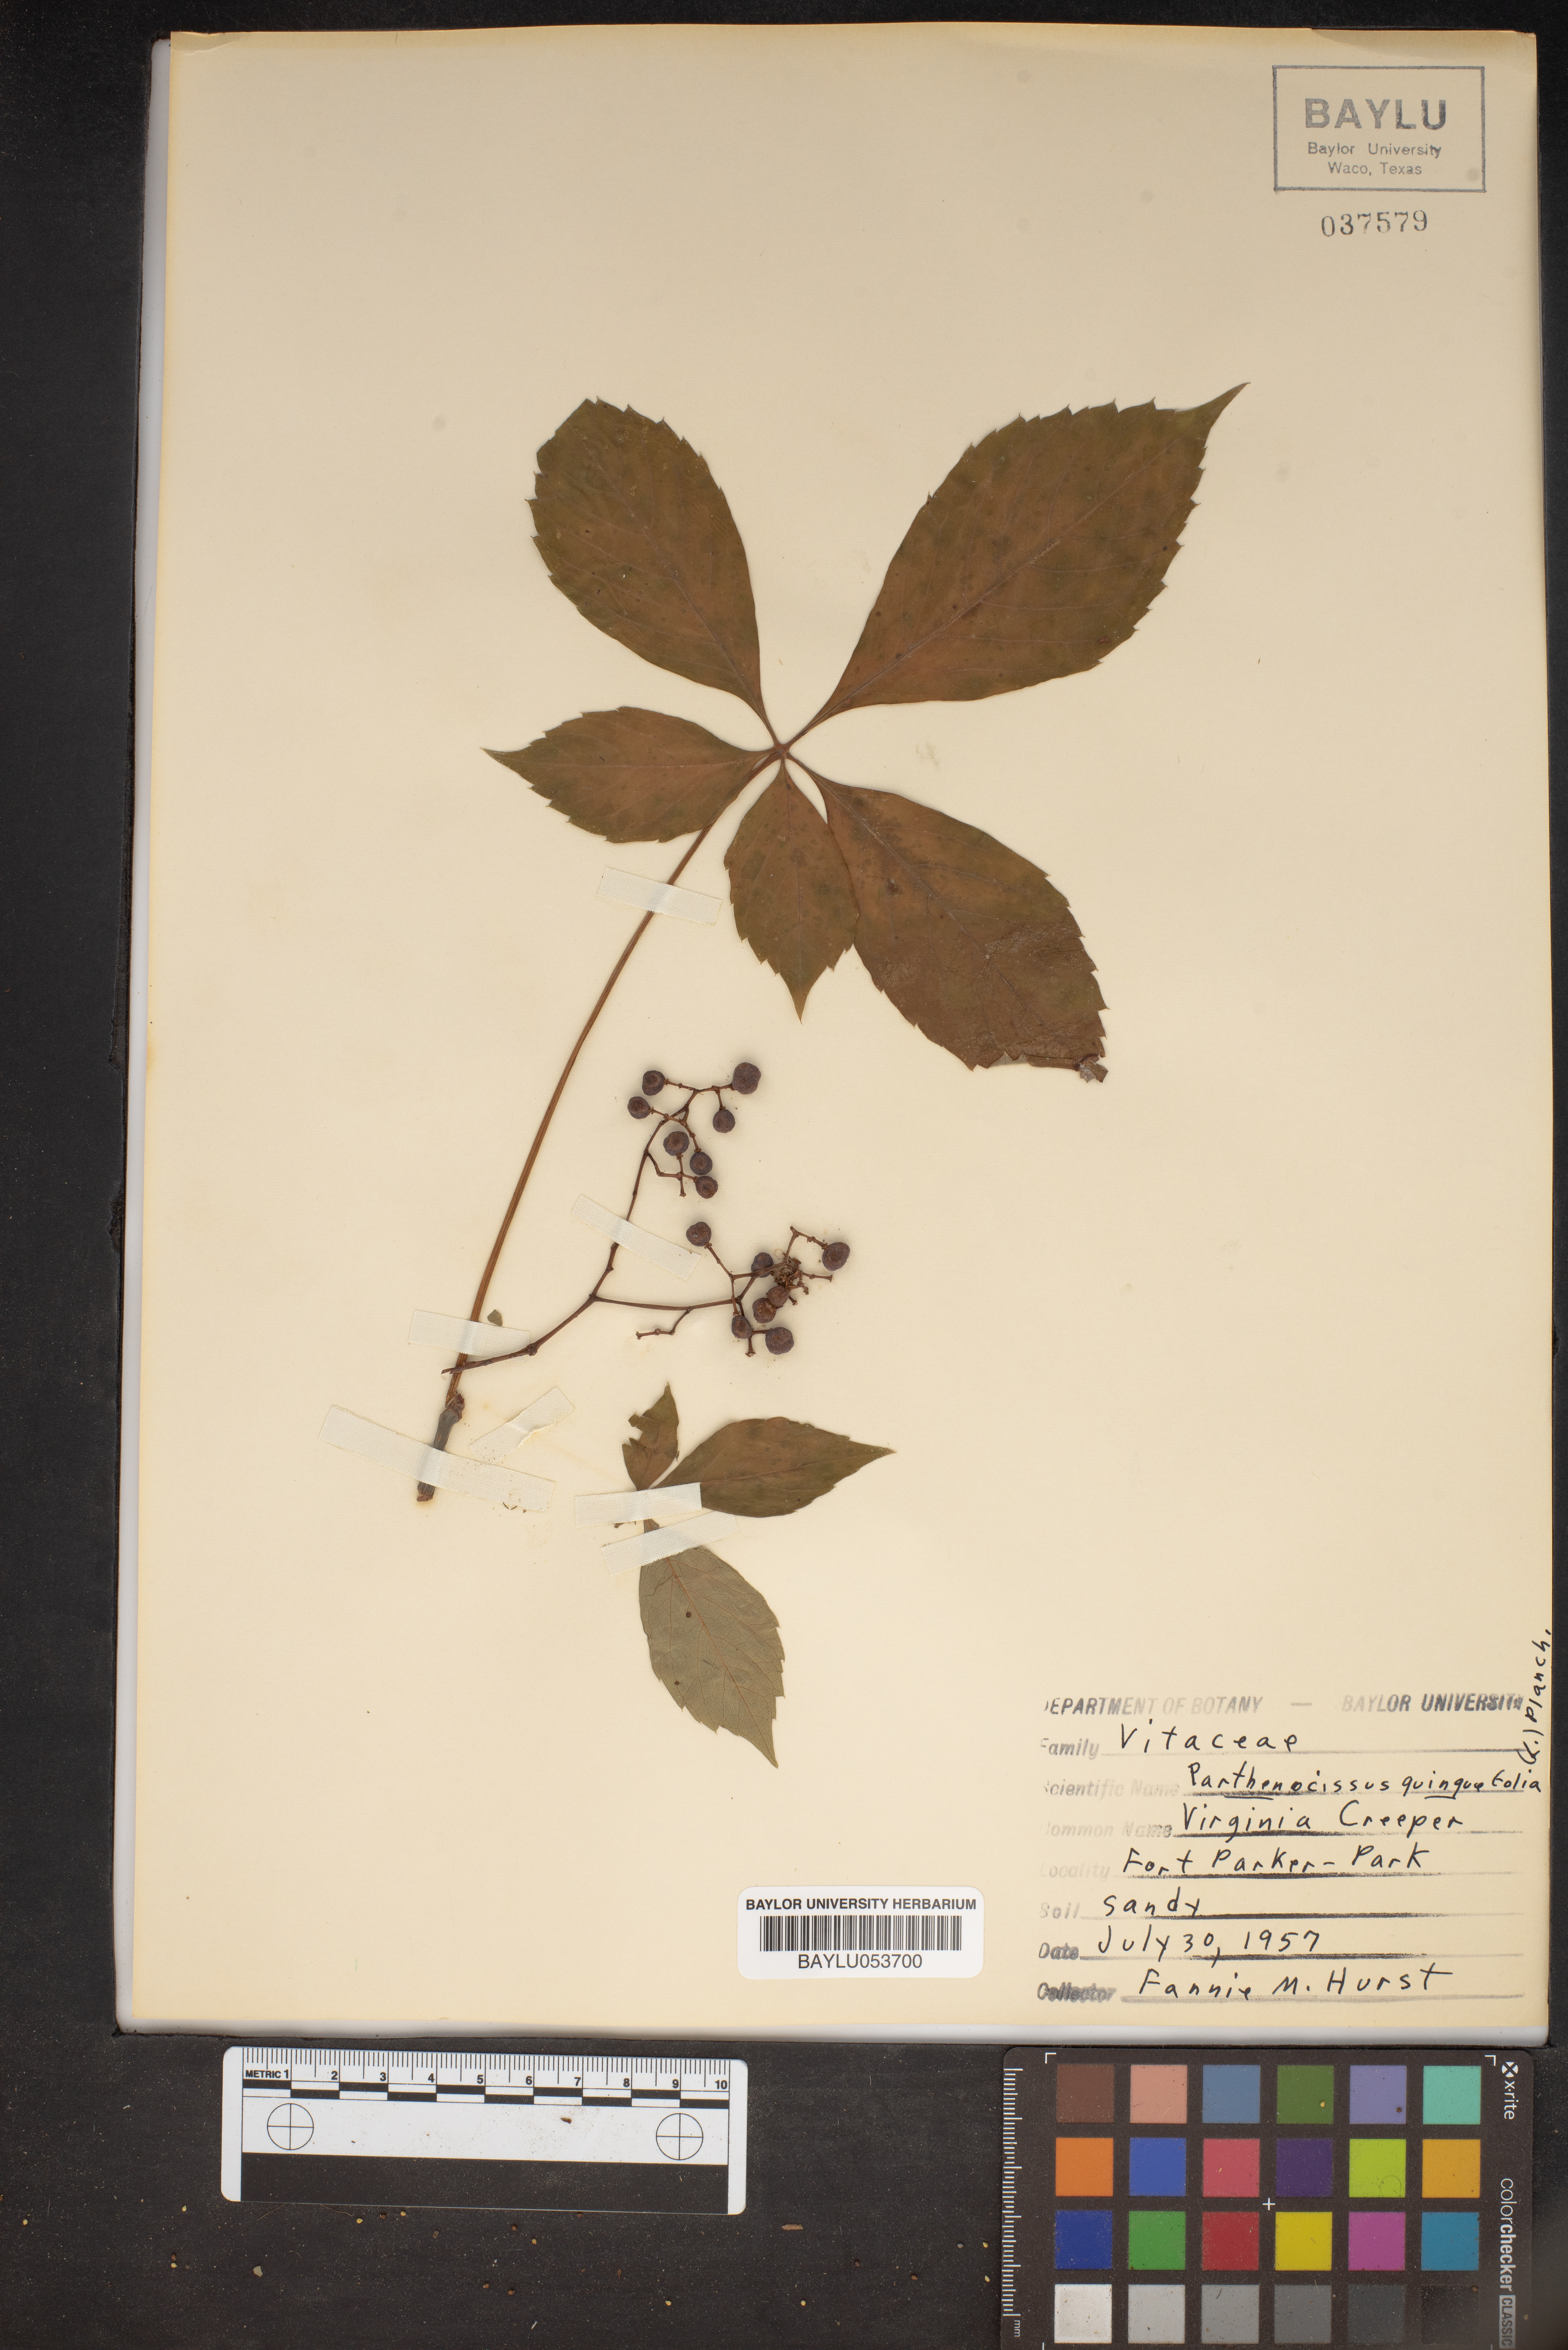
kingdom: Plantae
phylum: Tracheophyta
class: Magnoliopsida
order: Vitales
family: Vitaceae
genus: Parthenocissus
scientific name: Parthenocissus quinquefolia
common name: Virginia-creeper
